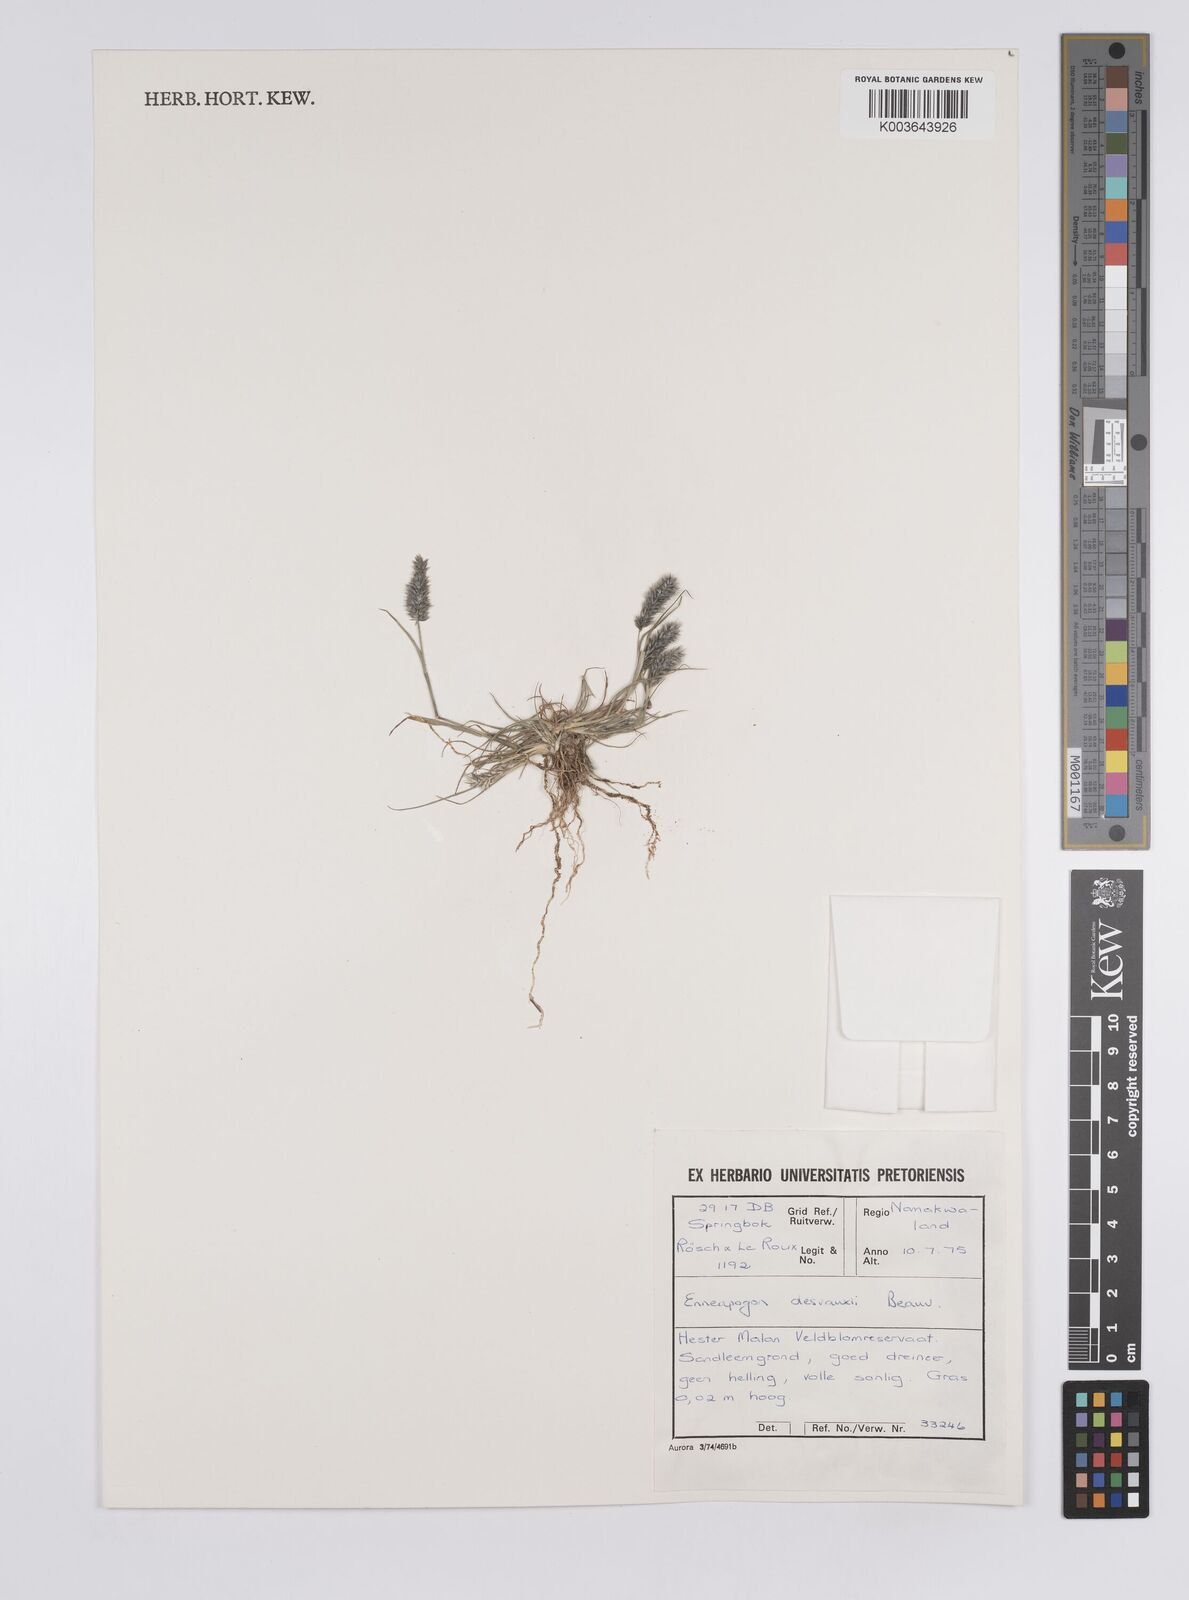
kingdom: Plantae
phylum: Tracheophyta
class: Liliopsida
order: Poales
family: Poaceae
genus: Enneapogon
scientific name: Enneapogon desvauxii
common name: Feather pappus grass
